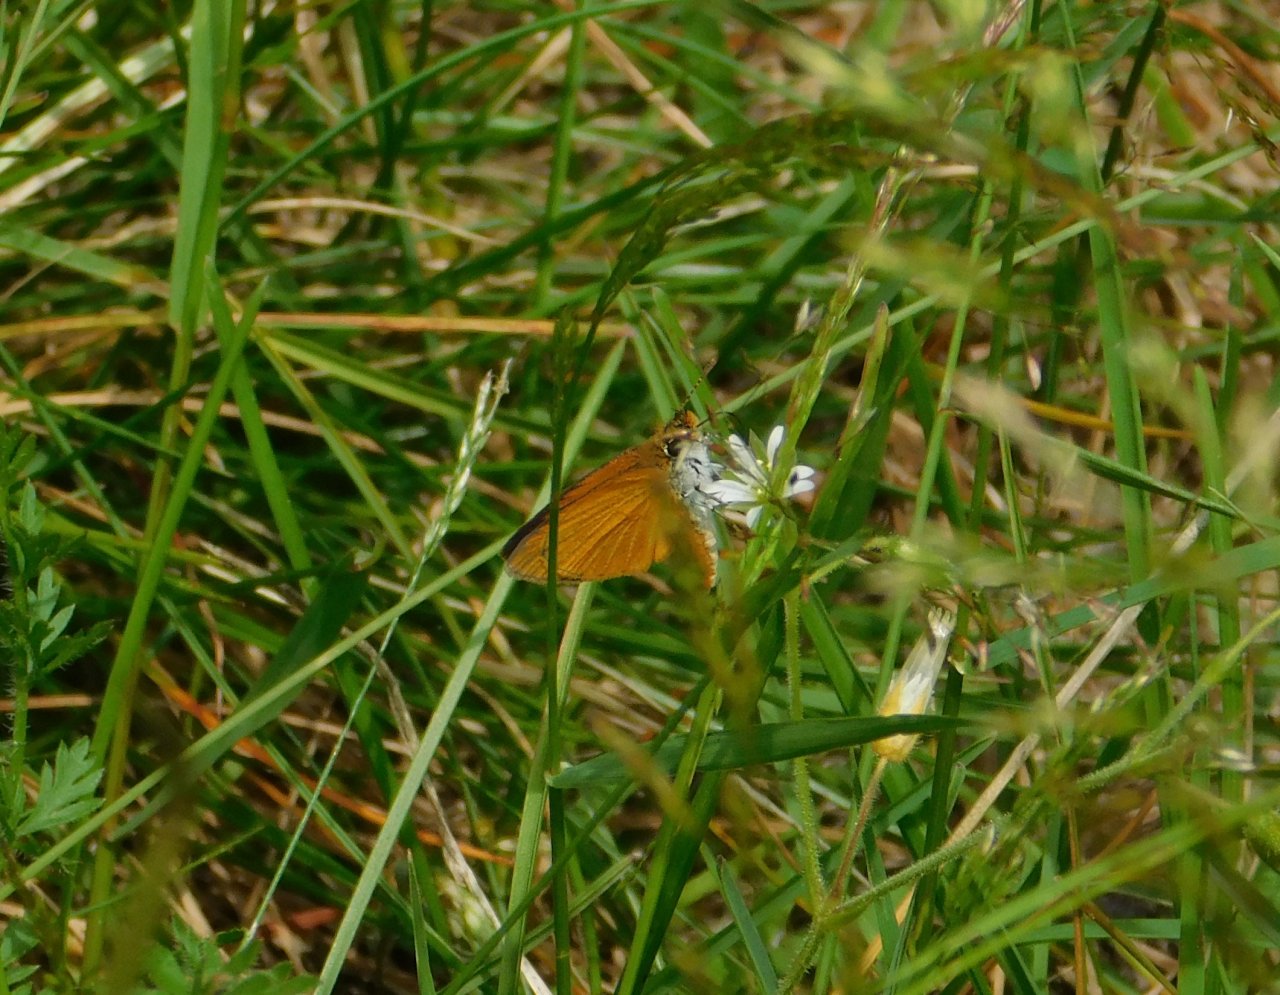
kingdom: Animalia
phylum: Arthropoda
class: Insecta
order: Lepidoptera
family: Hesperiidae
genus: Ancyloxypha
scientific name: Ancyloxypha numitor
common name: Least Skipper
